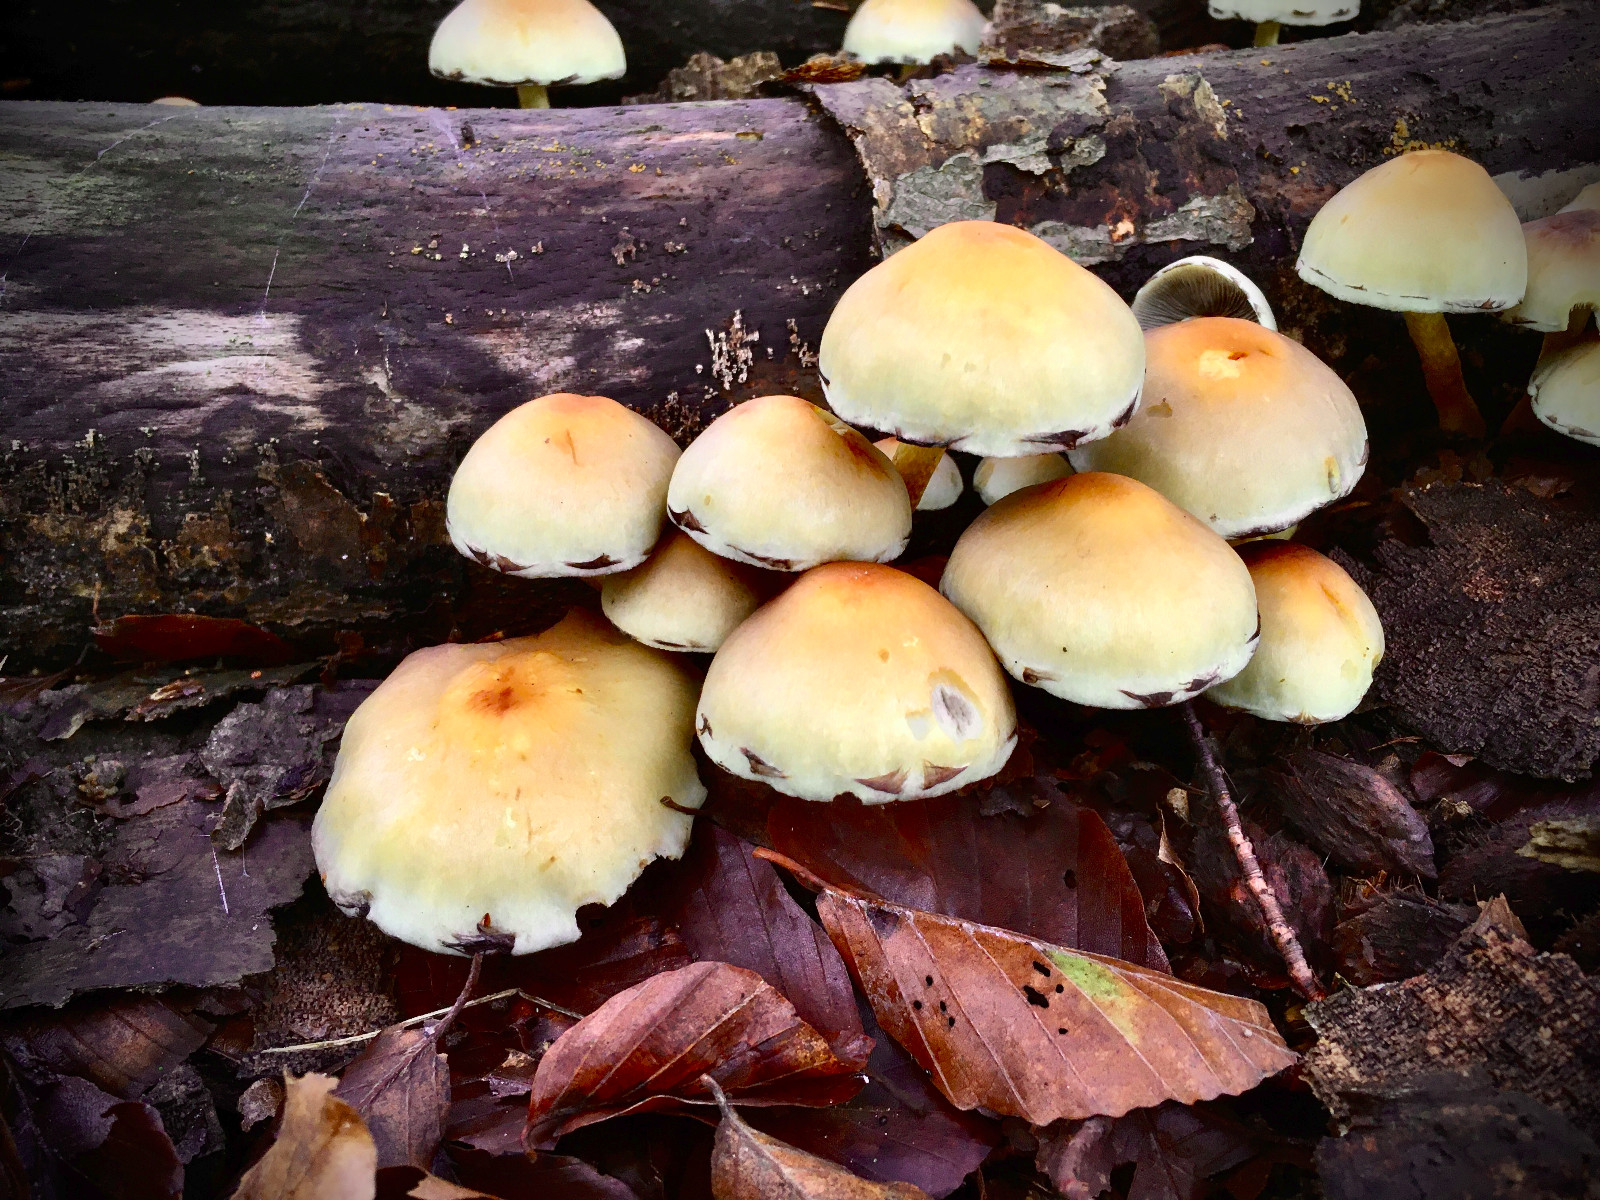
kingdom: Fungi
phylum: Basidiomycota
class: Agaricomycetes
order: Agaricales
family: Strophariaceae
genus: Hypholoma
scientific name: Hypholoma fasciculare
